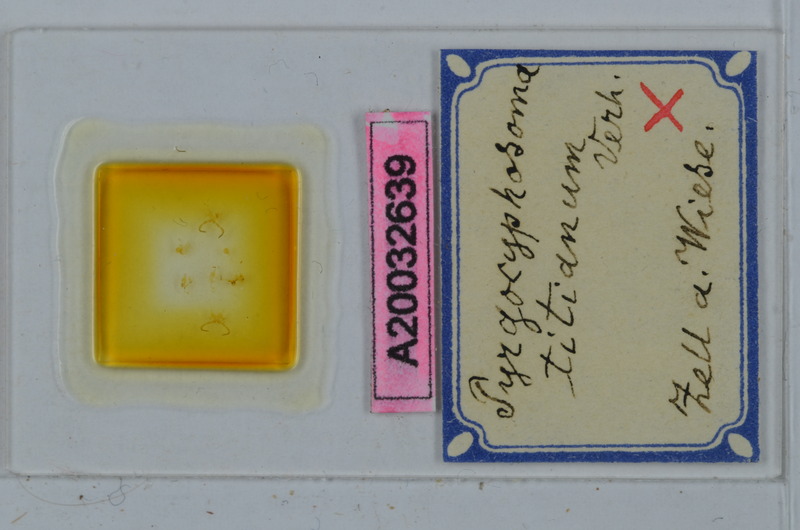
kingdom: Animalia
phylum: Arthropoda
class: Diplopoda
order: Chordeumatida
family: Craspedosomatidae
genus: Pyrgocyphosoma
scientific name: Pyrgocyphosoma titianum
